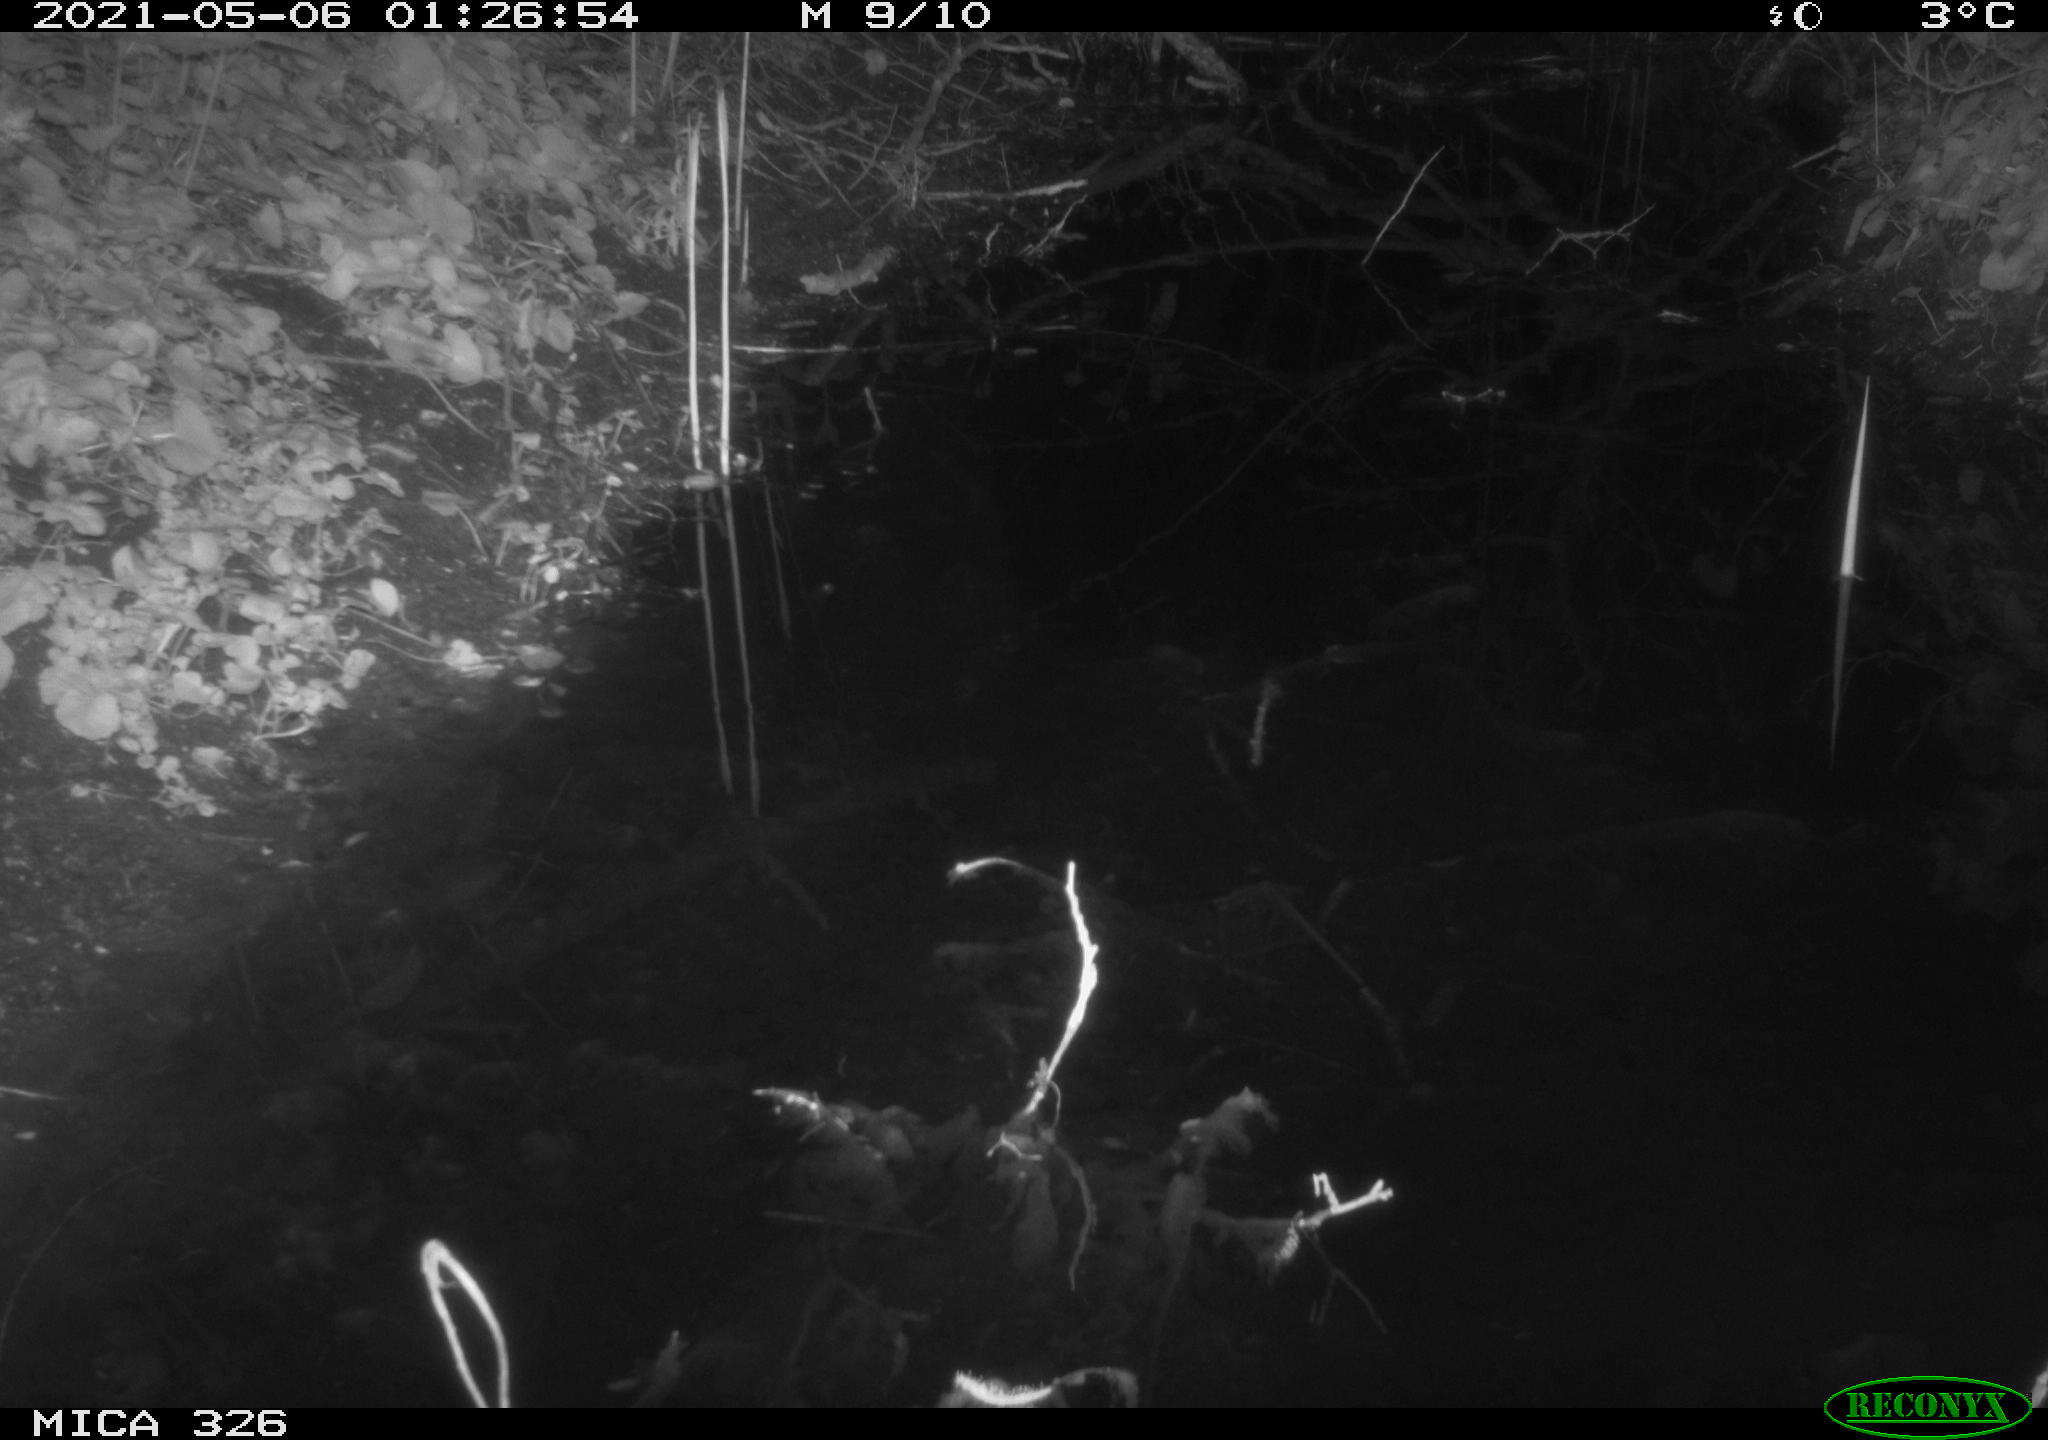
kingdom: Animalia
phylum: Chordata
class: Mammalia
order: Rodentia
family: Muridae
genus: Rattus
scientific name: Rattus norvegicus
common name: Brown rat
